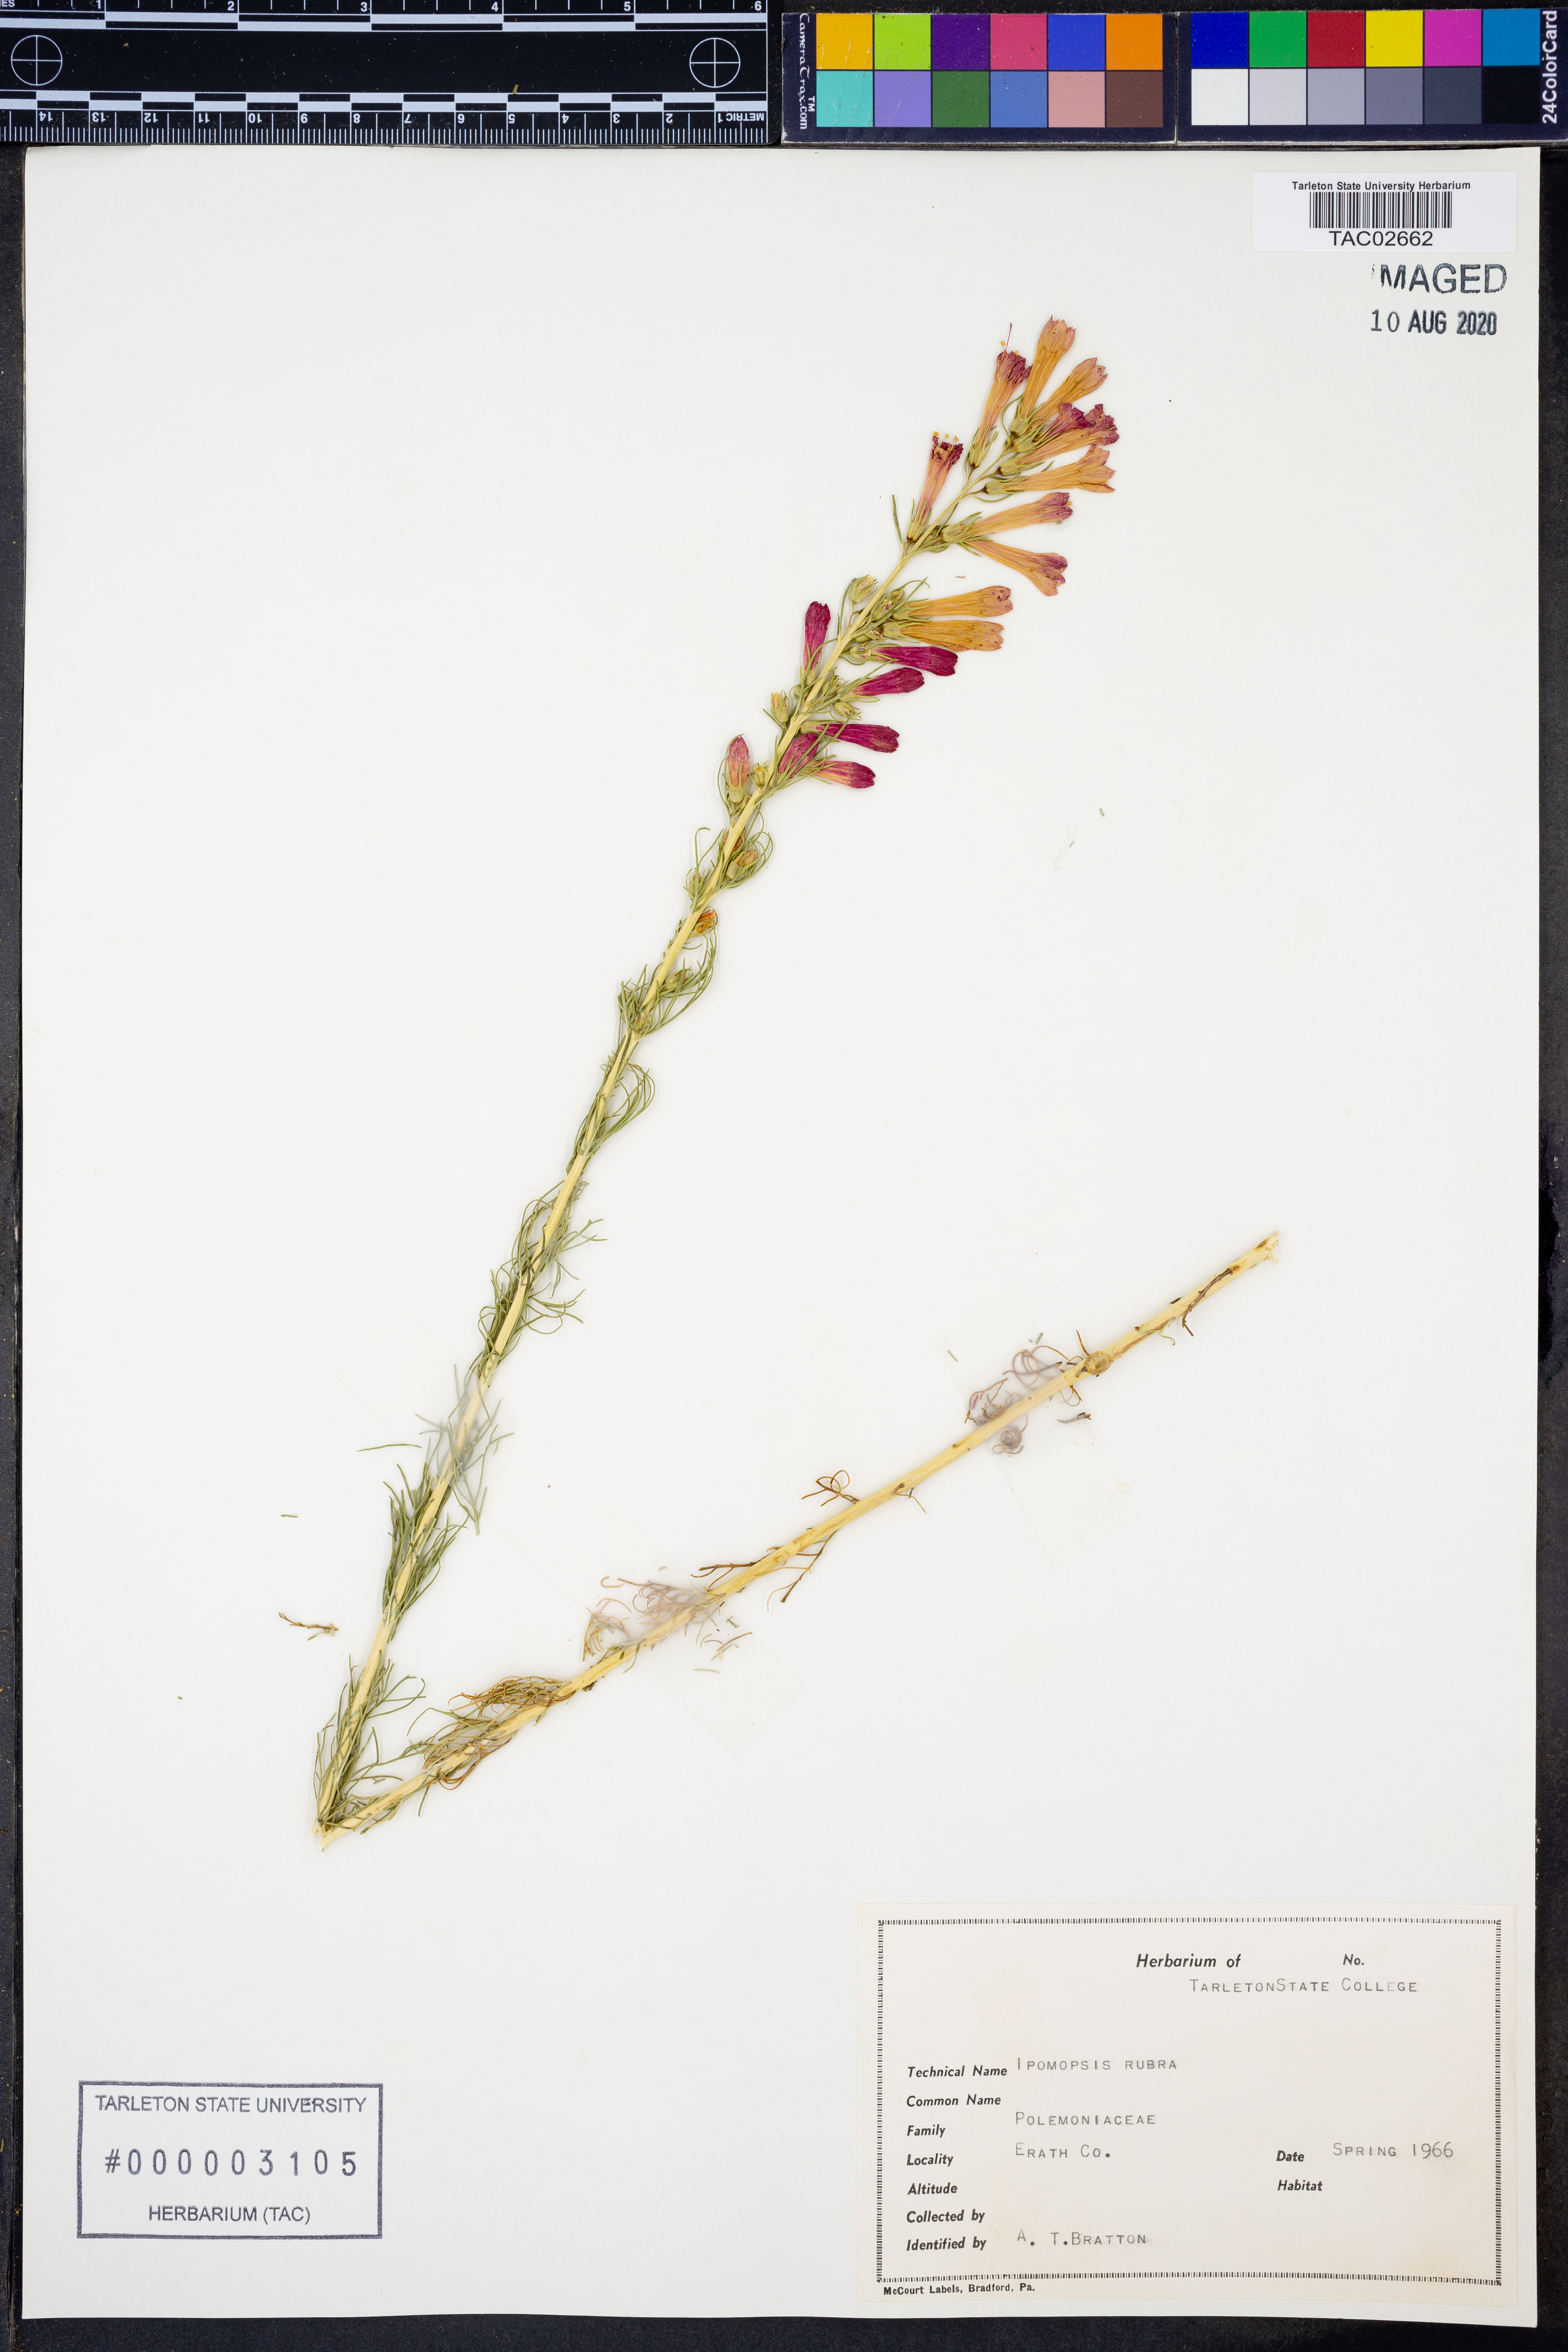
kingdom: Plantae
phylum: Tracheophyta
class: Magnoliopsida
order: Ericales
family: Polemoniaceae
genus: Ipomopsis
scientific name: Ipomopsis rubra
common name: Skyrocket
